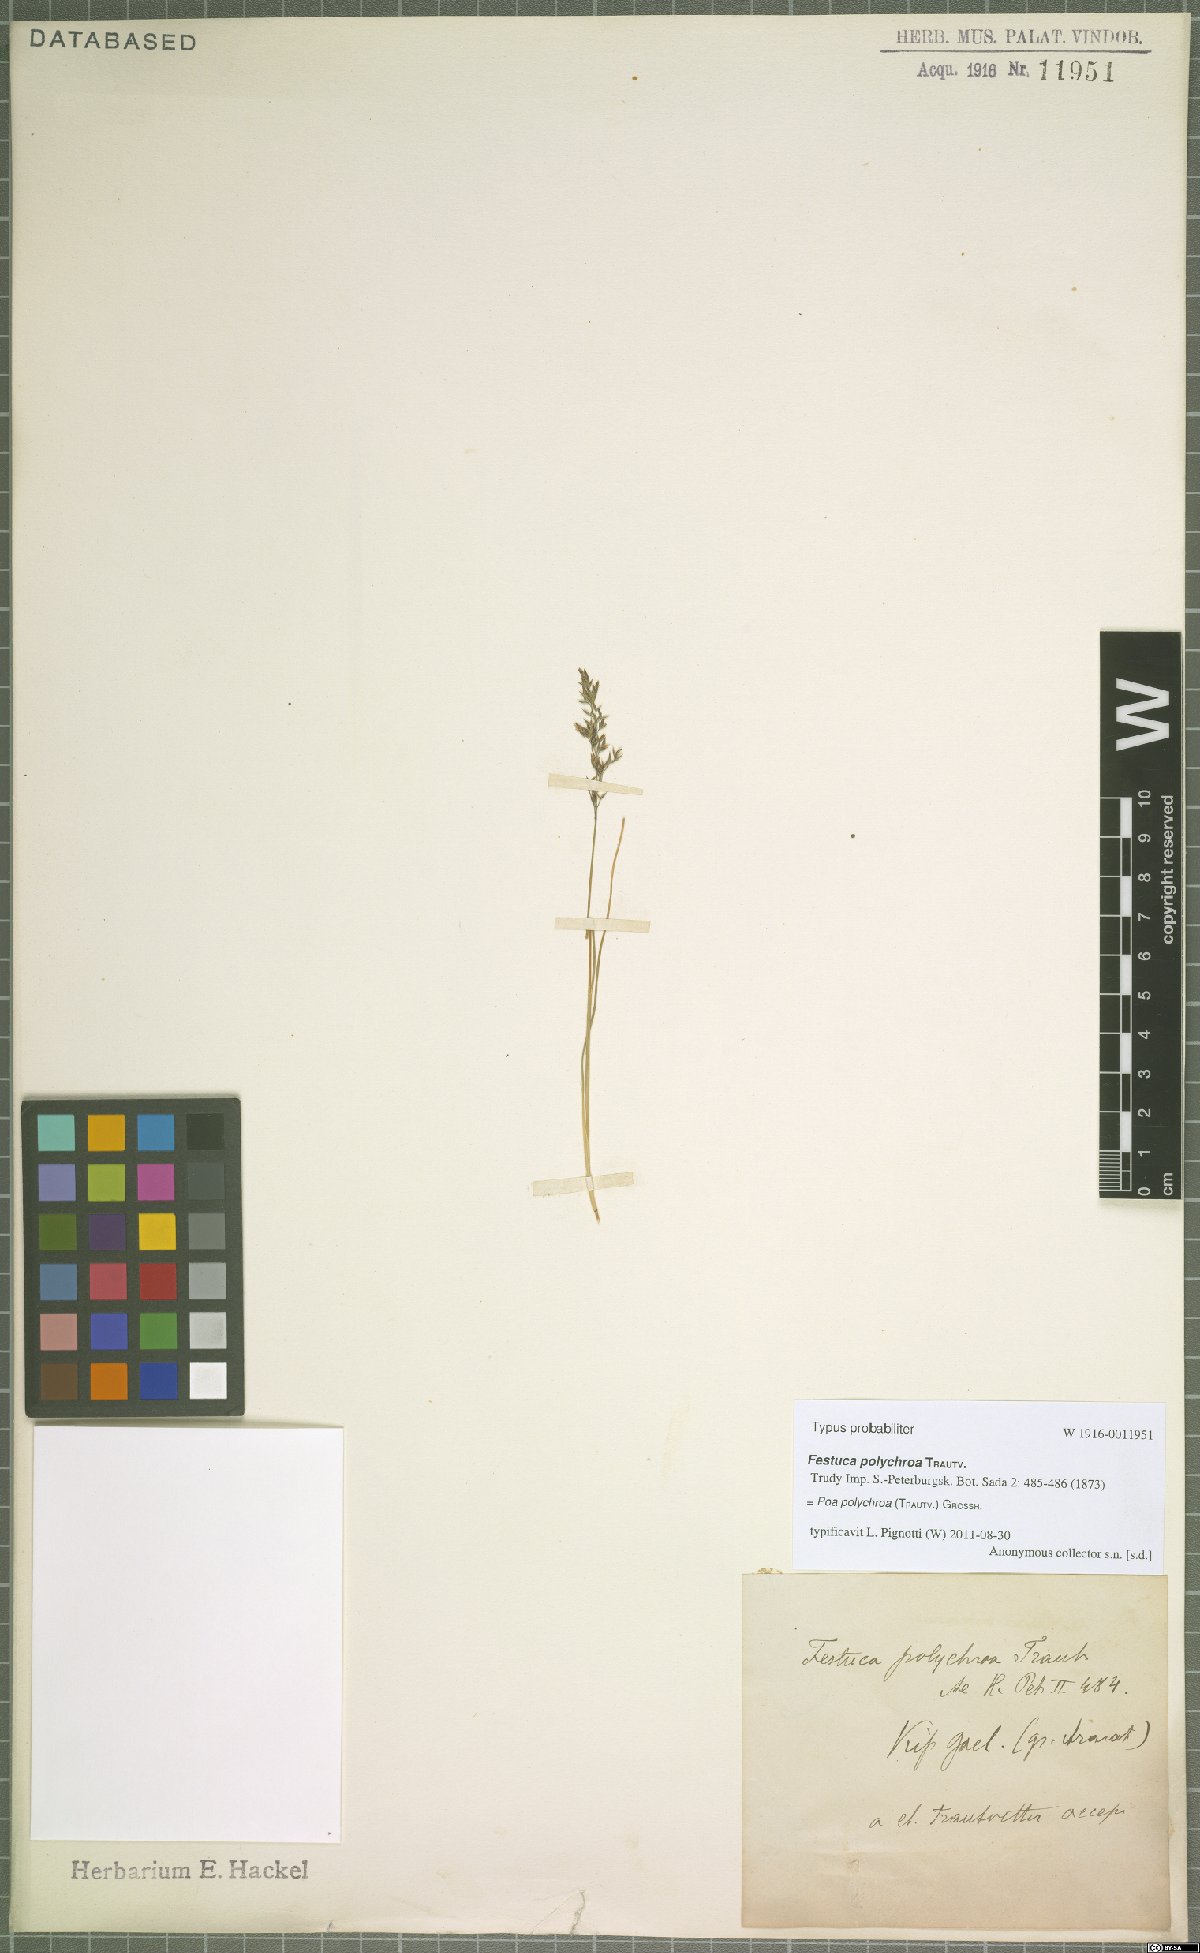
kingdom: Plantae
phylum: Tracheophyta
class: Liliopsida
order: Poales
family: Poaceae
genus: Bellardiochloa
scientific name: Bellardiochloa polychroa
